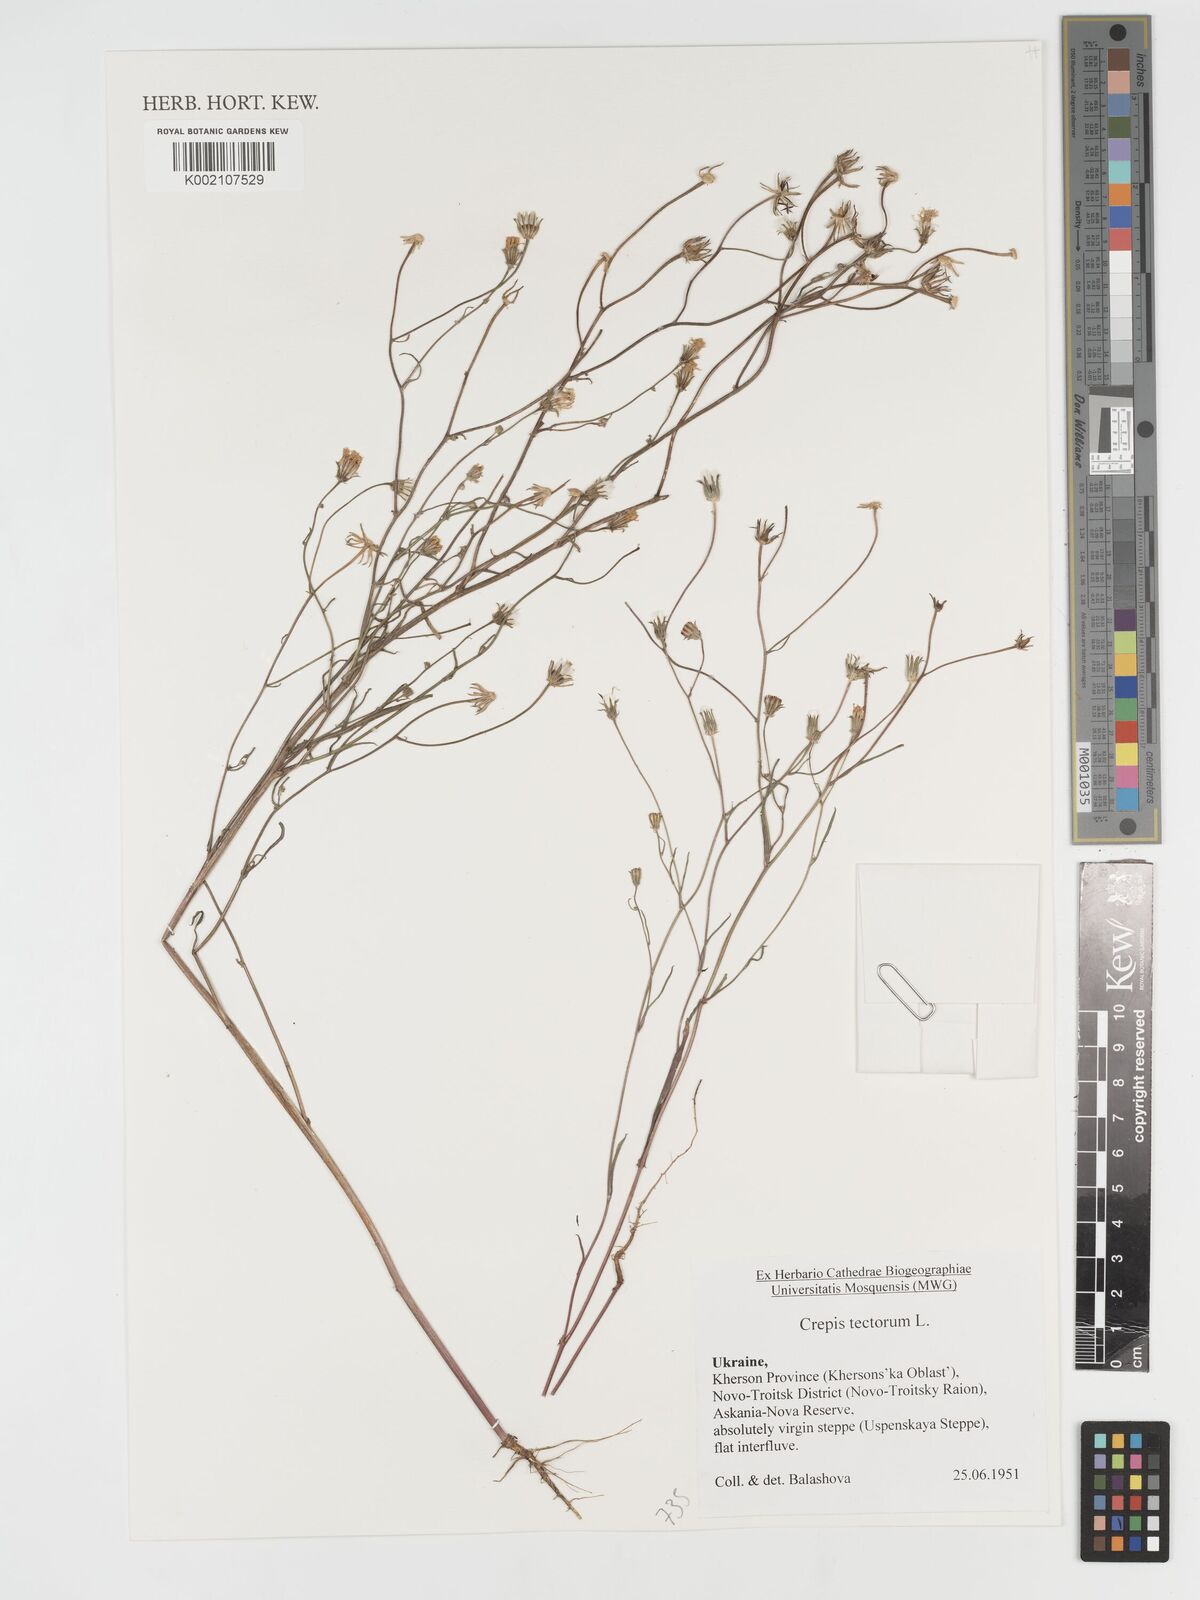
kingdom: Plantae
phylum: Tracheophyta
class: Magnoliopsida
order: Asterales
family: Asteraceae
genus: Crepis
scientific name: Crepis tectorum
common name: Narrow-leaved hawk's-beard
